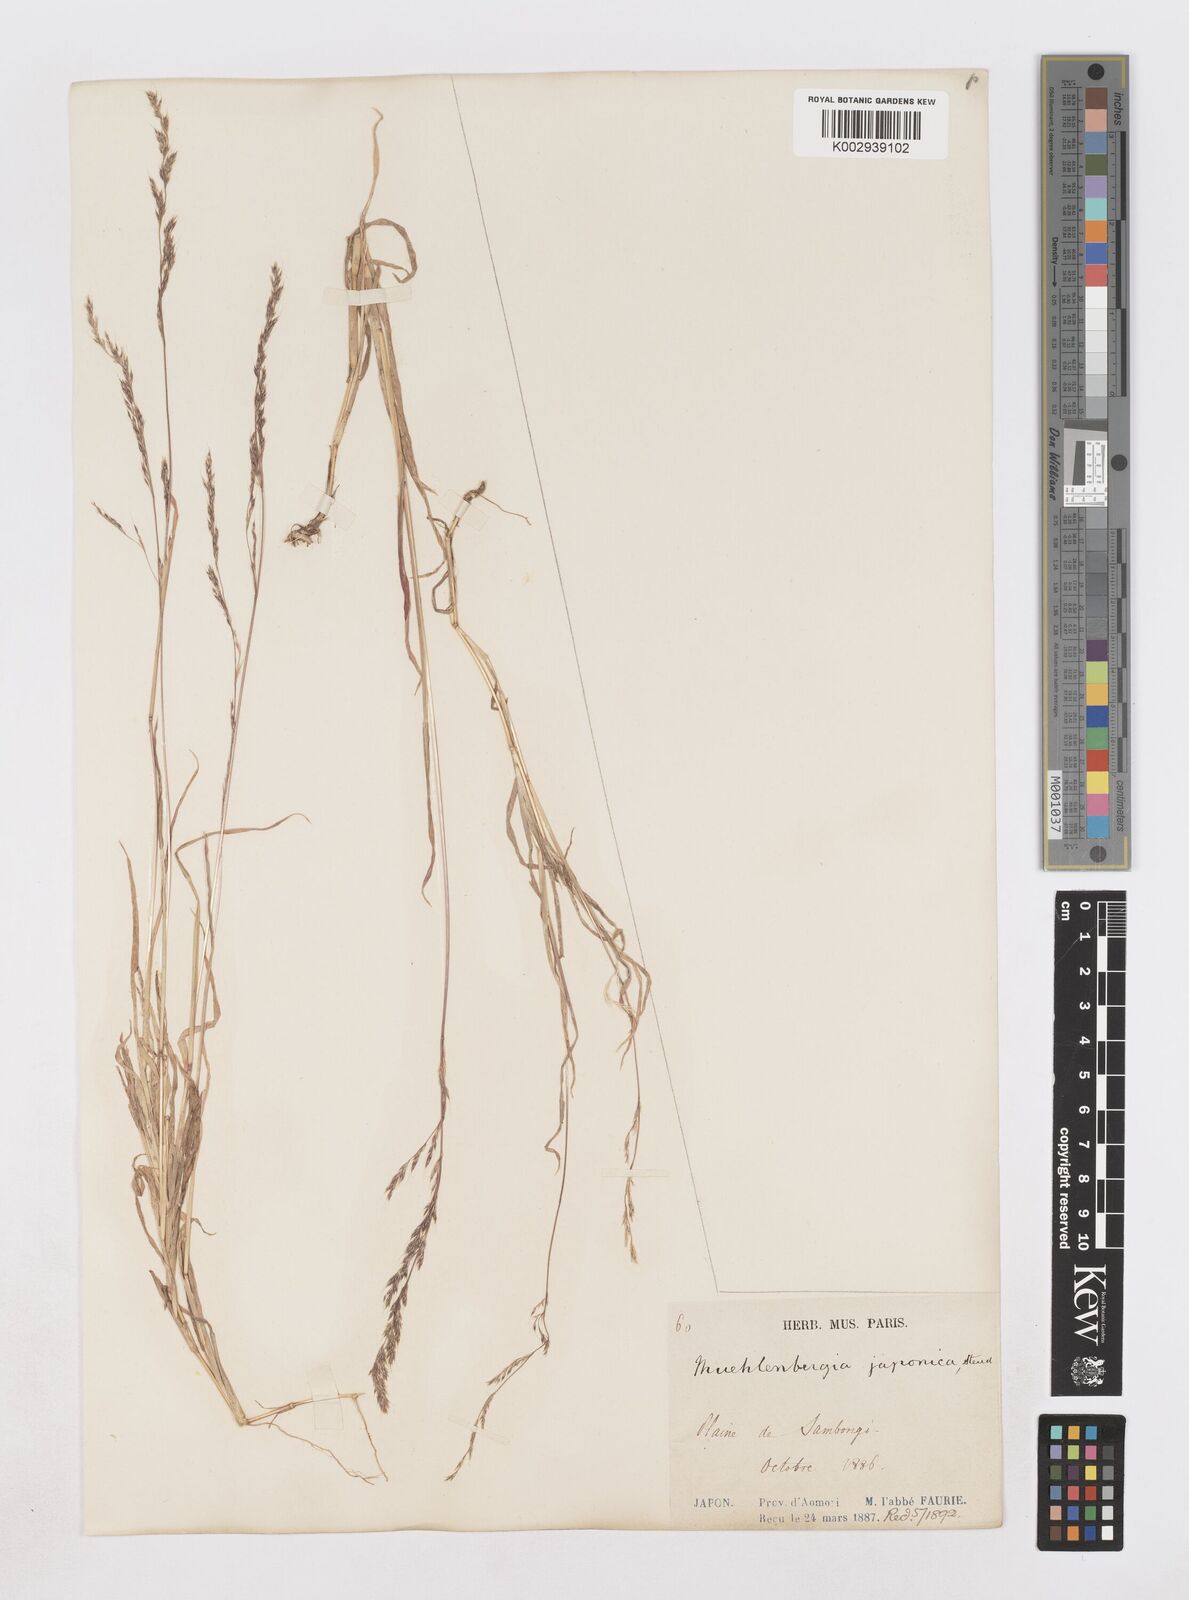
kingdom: Plantae
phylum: Tracheophyta
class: Liliopsida
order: Poales
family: Poaceae
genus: Muhlenbergia
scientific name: Muhlenbergia japonica
